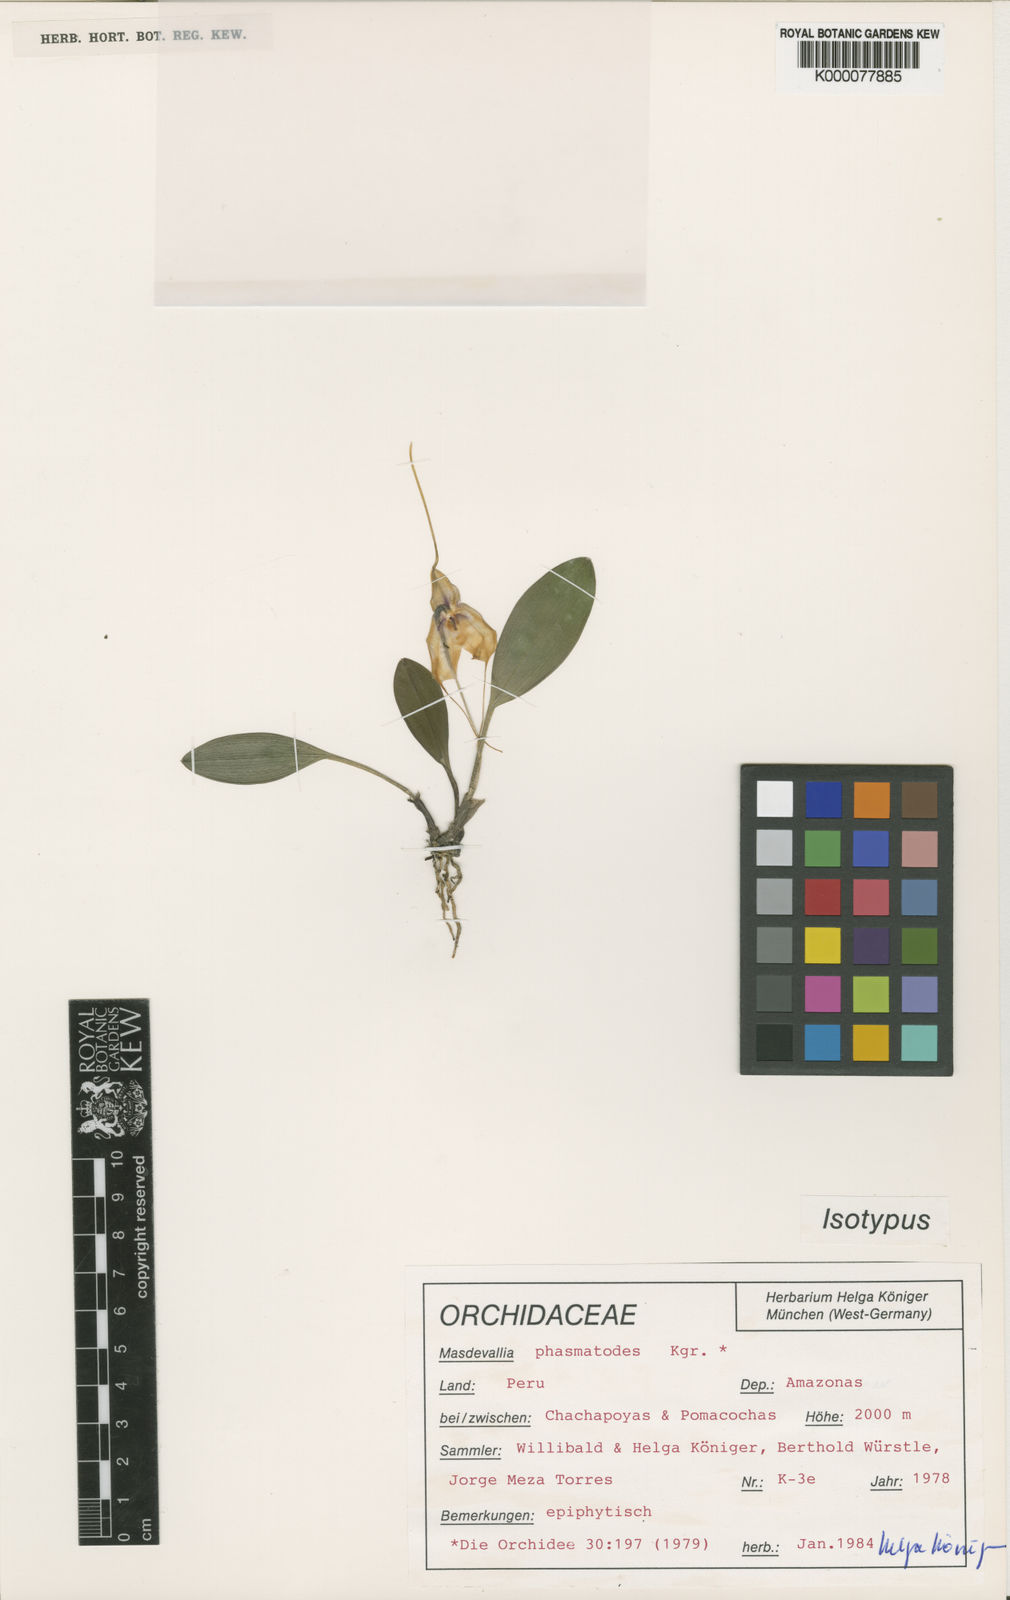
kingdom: Plantae
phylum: Tracheophyta
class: Liliopsida
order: Asparagales
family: Orchidaceae
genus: Masdevallia
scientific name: Masdevallia
